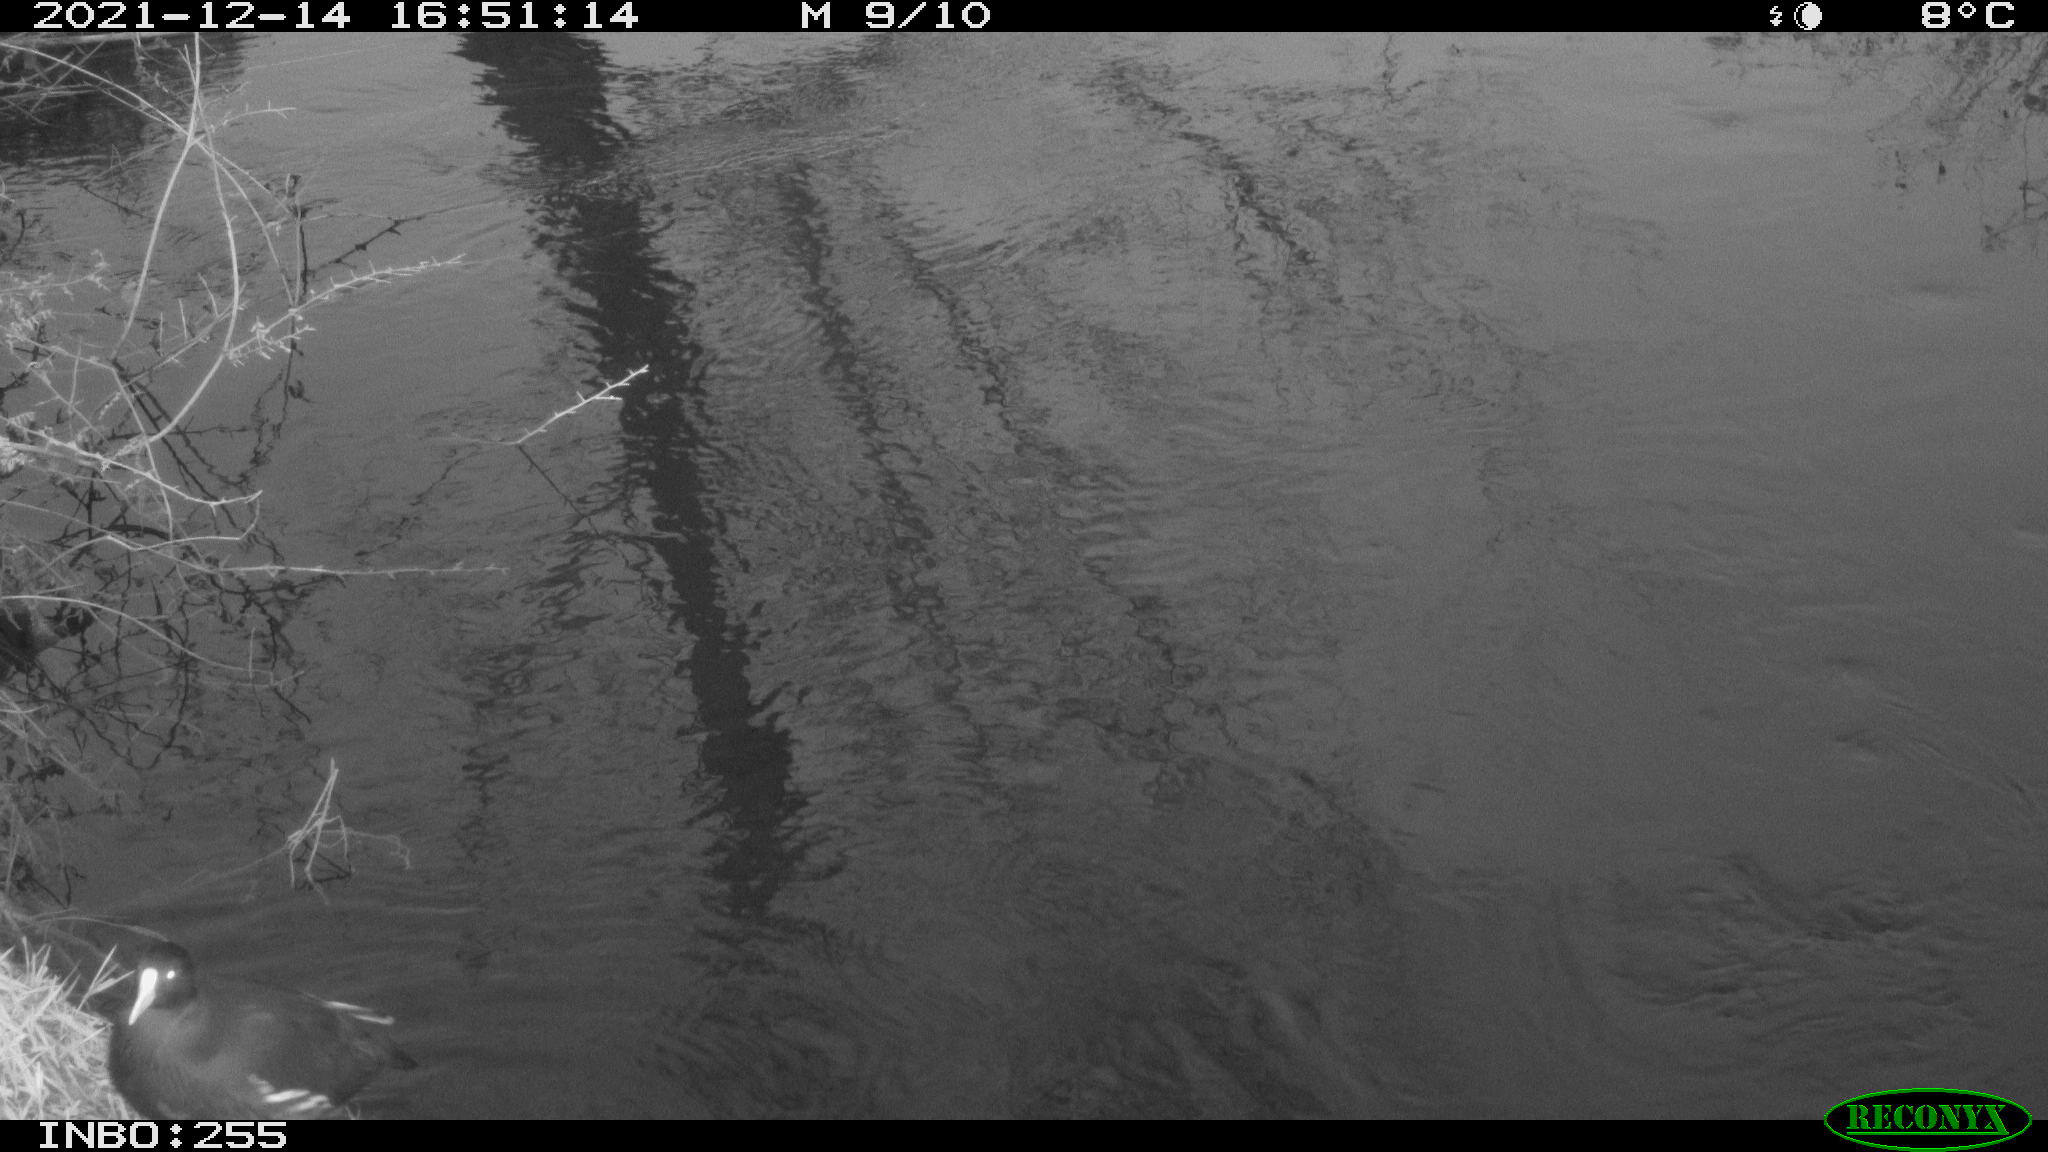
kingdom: Animalia
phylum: Chordata
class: Aves
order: Gruiformes
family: Rallidae
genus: Gallinula
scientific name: Gallinula chloropus
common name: Common moorhen
